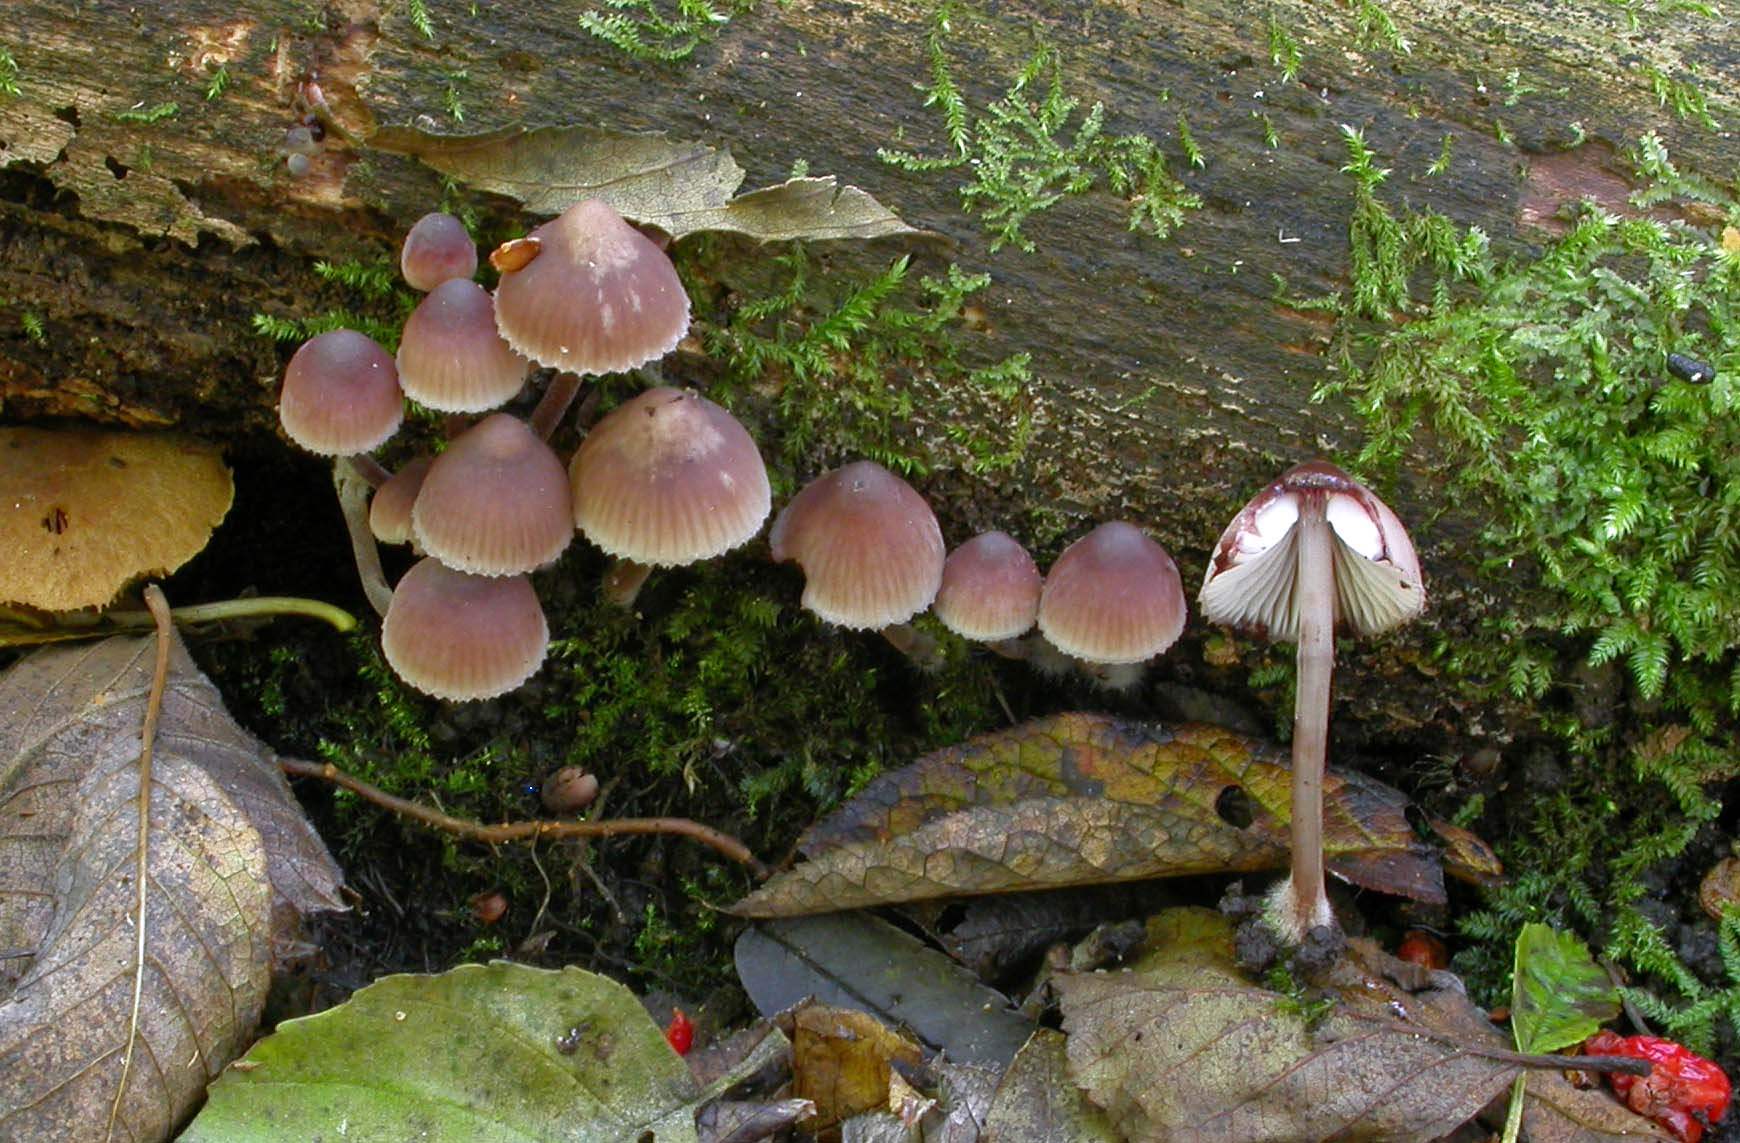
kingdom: Fungi
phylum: Basidiomycota
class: Agaricomycetes
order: Agaricales
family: Mycenaceae
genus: Mycena
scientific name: Mycena haematopus
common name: blødende huesvamp
